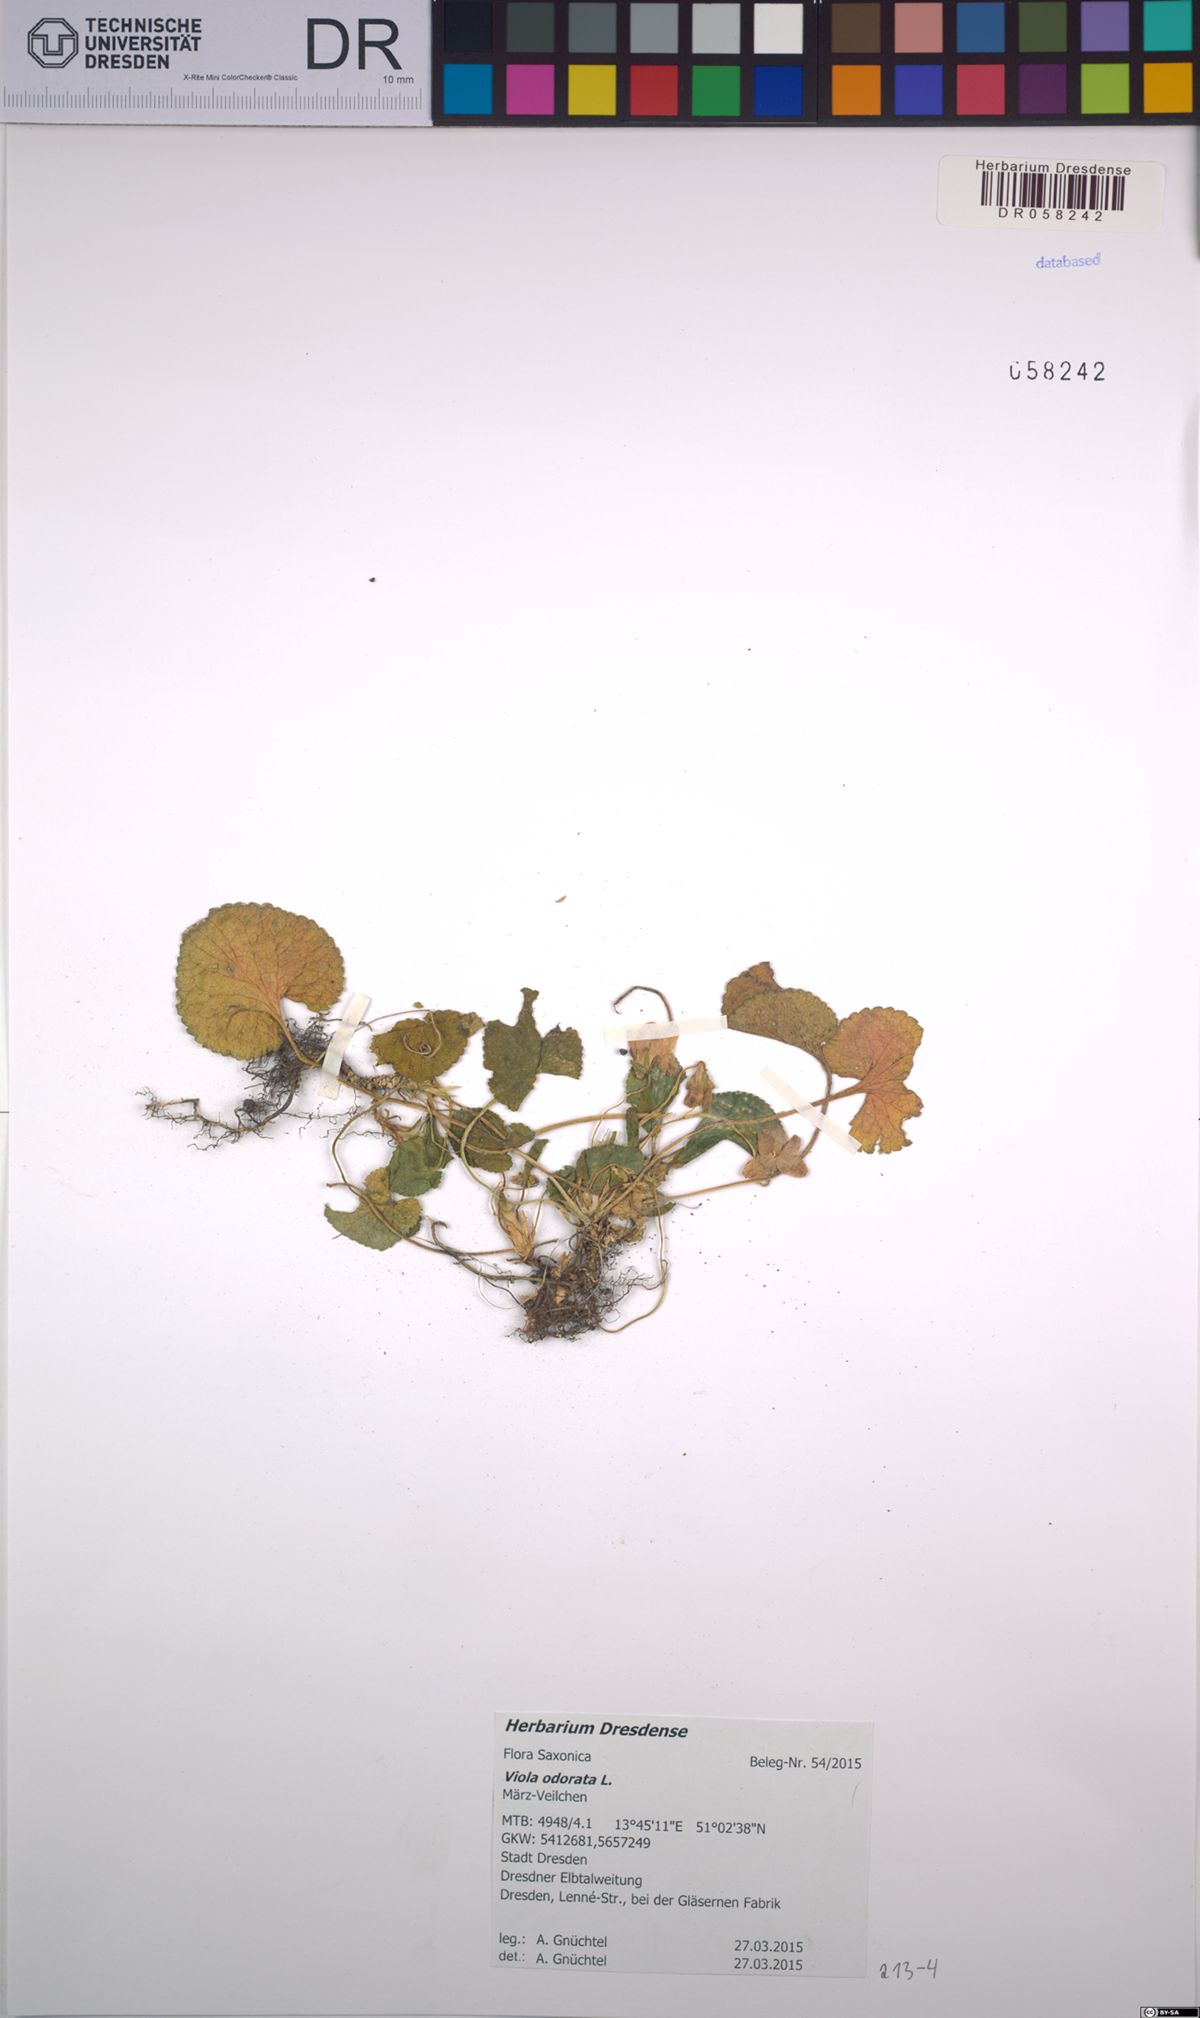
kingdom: Plantae
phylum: Tracheophyta
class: Magnoliopsida
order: Malpighiales
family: Violaceae
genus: Viola
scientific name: Viola odorata
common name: Sweet violet
